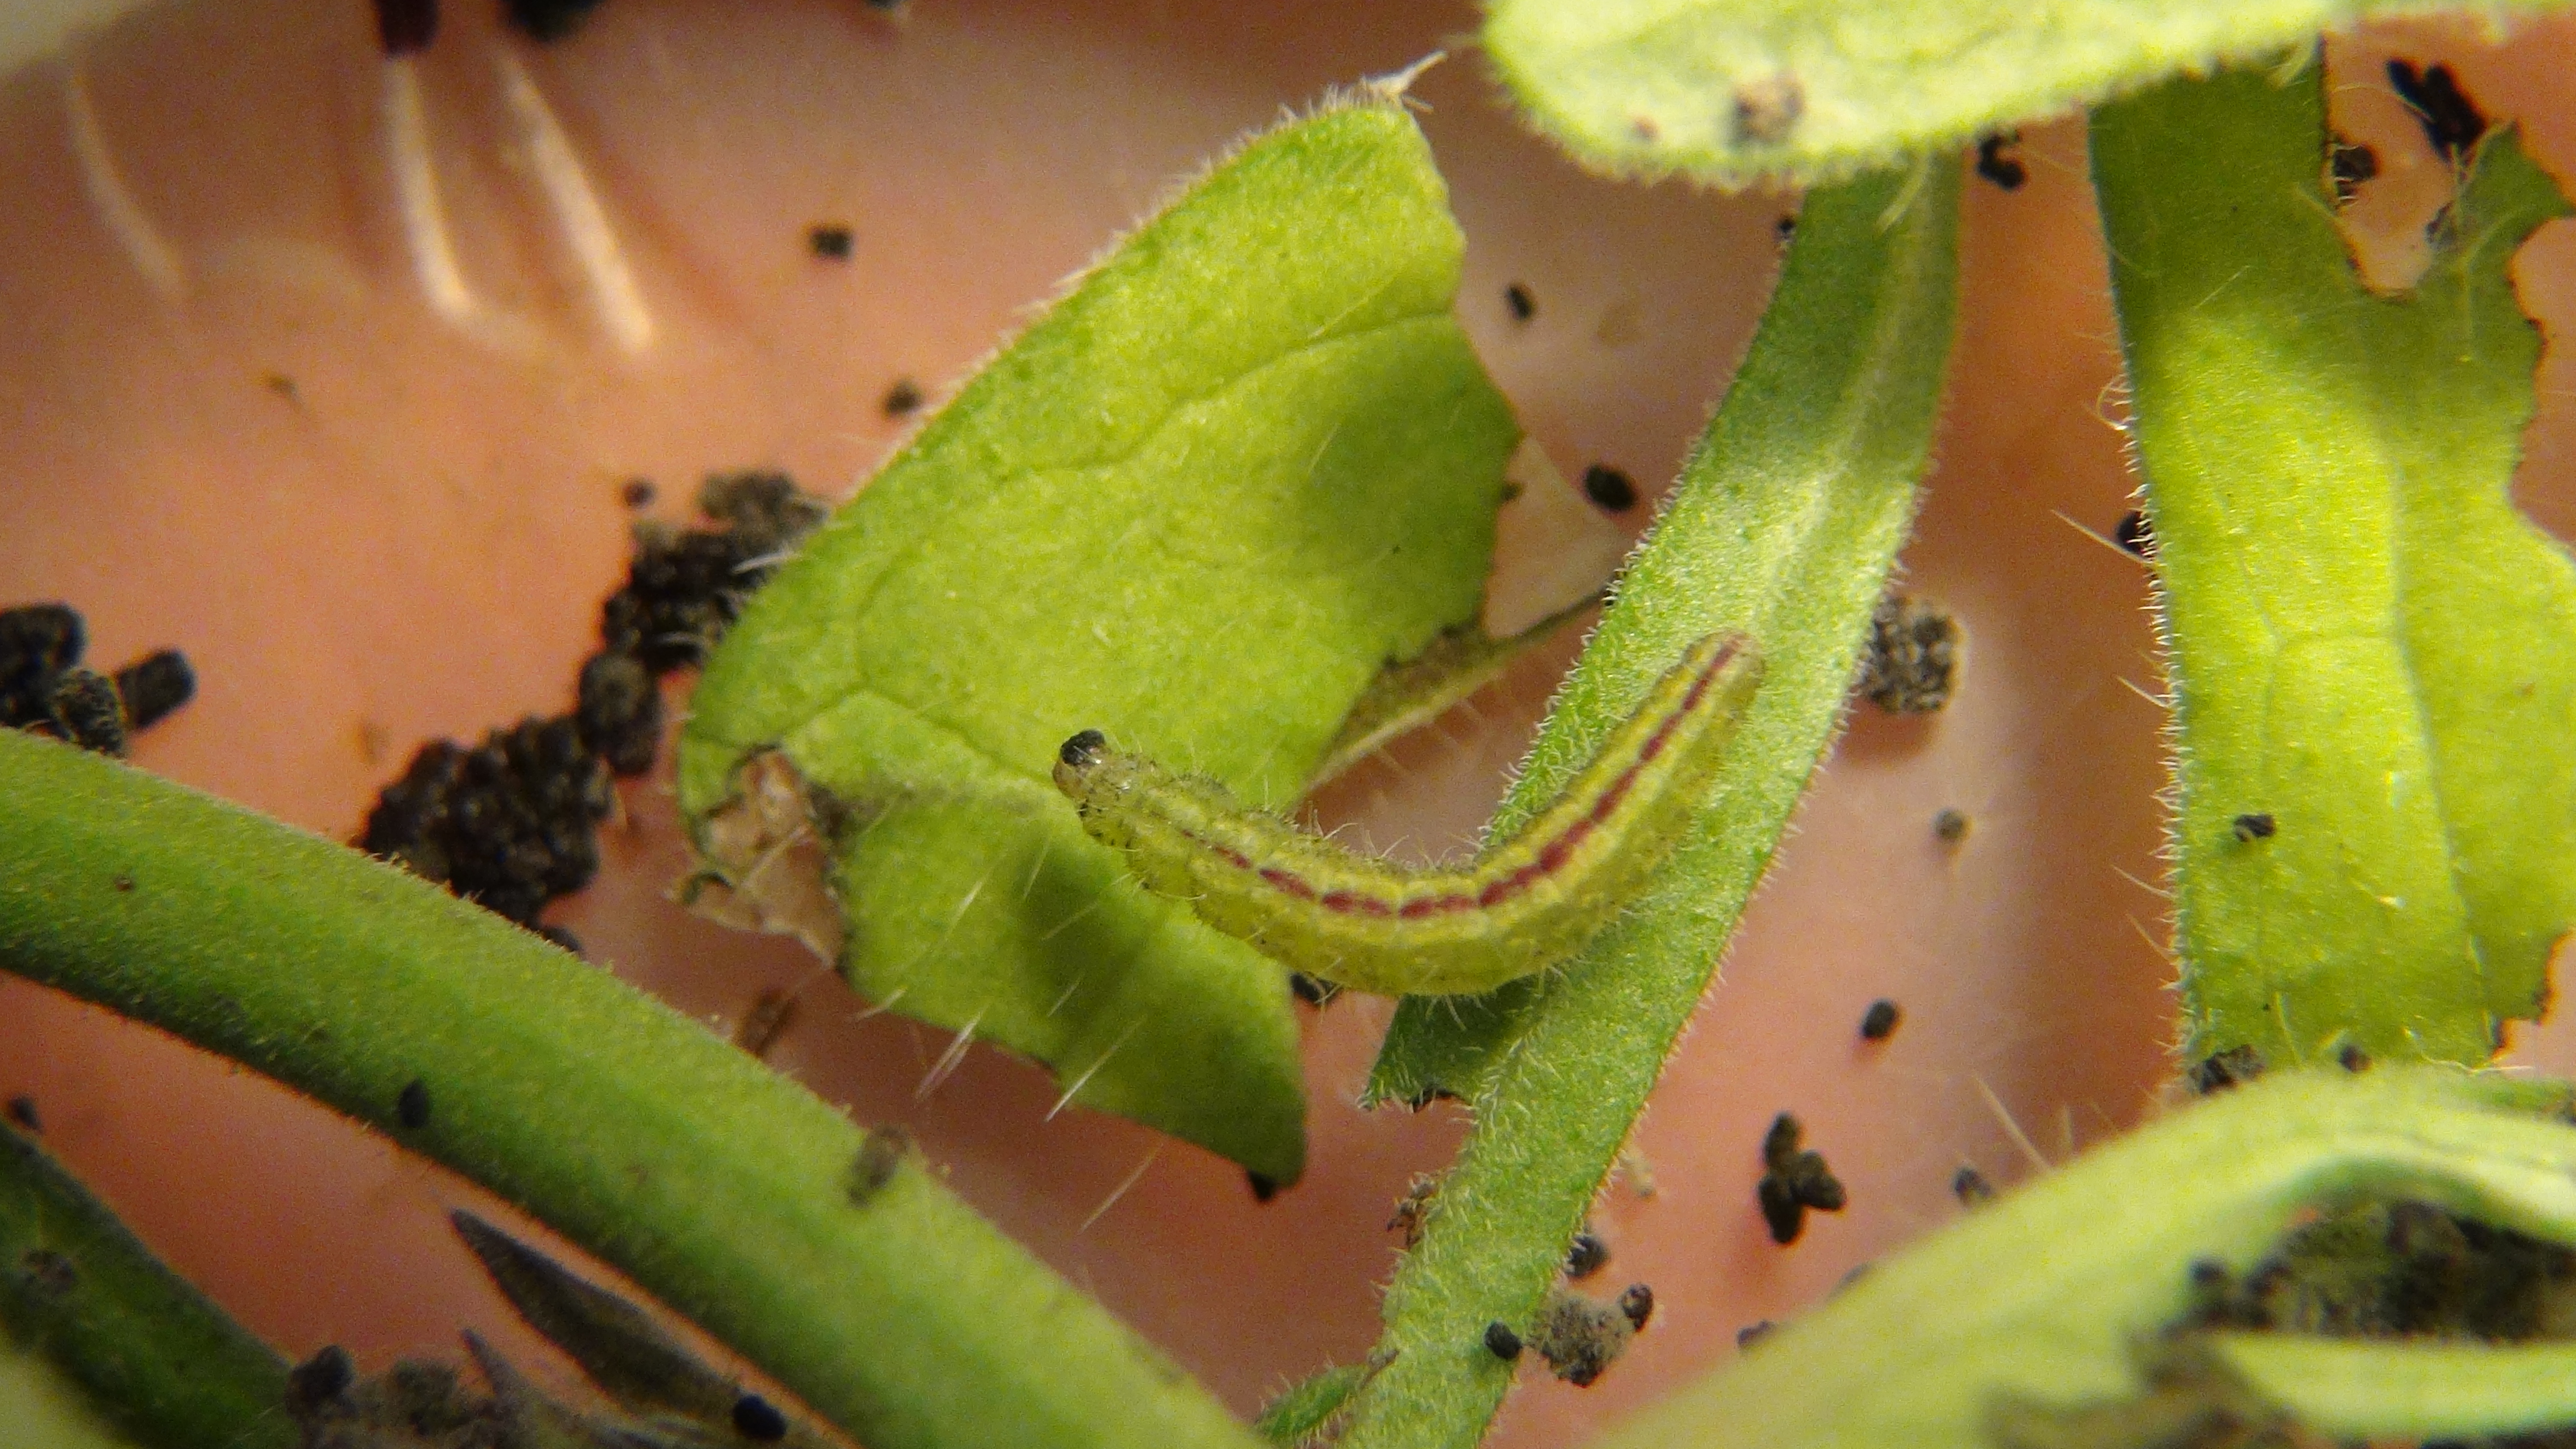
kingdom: Animalia
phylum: Arthropoda
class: Insecta
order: Lepidoptera
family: Pterophoridae
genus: Stenoptilia
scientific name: Stenoptilia bipunctidactyla
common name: Twin-spot plume
